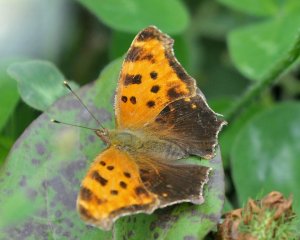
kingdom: Animalia
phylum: Arthropoda
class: Insecta
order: Lepidoptera
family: Nymphalidae
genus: Polygonia
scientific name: Polygonia comma
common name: Eastern Comma
